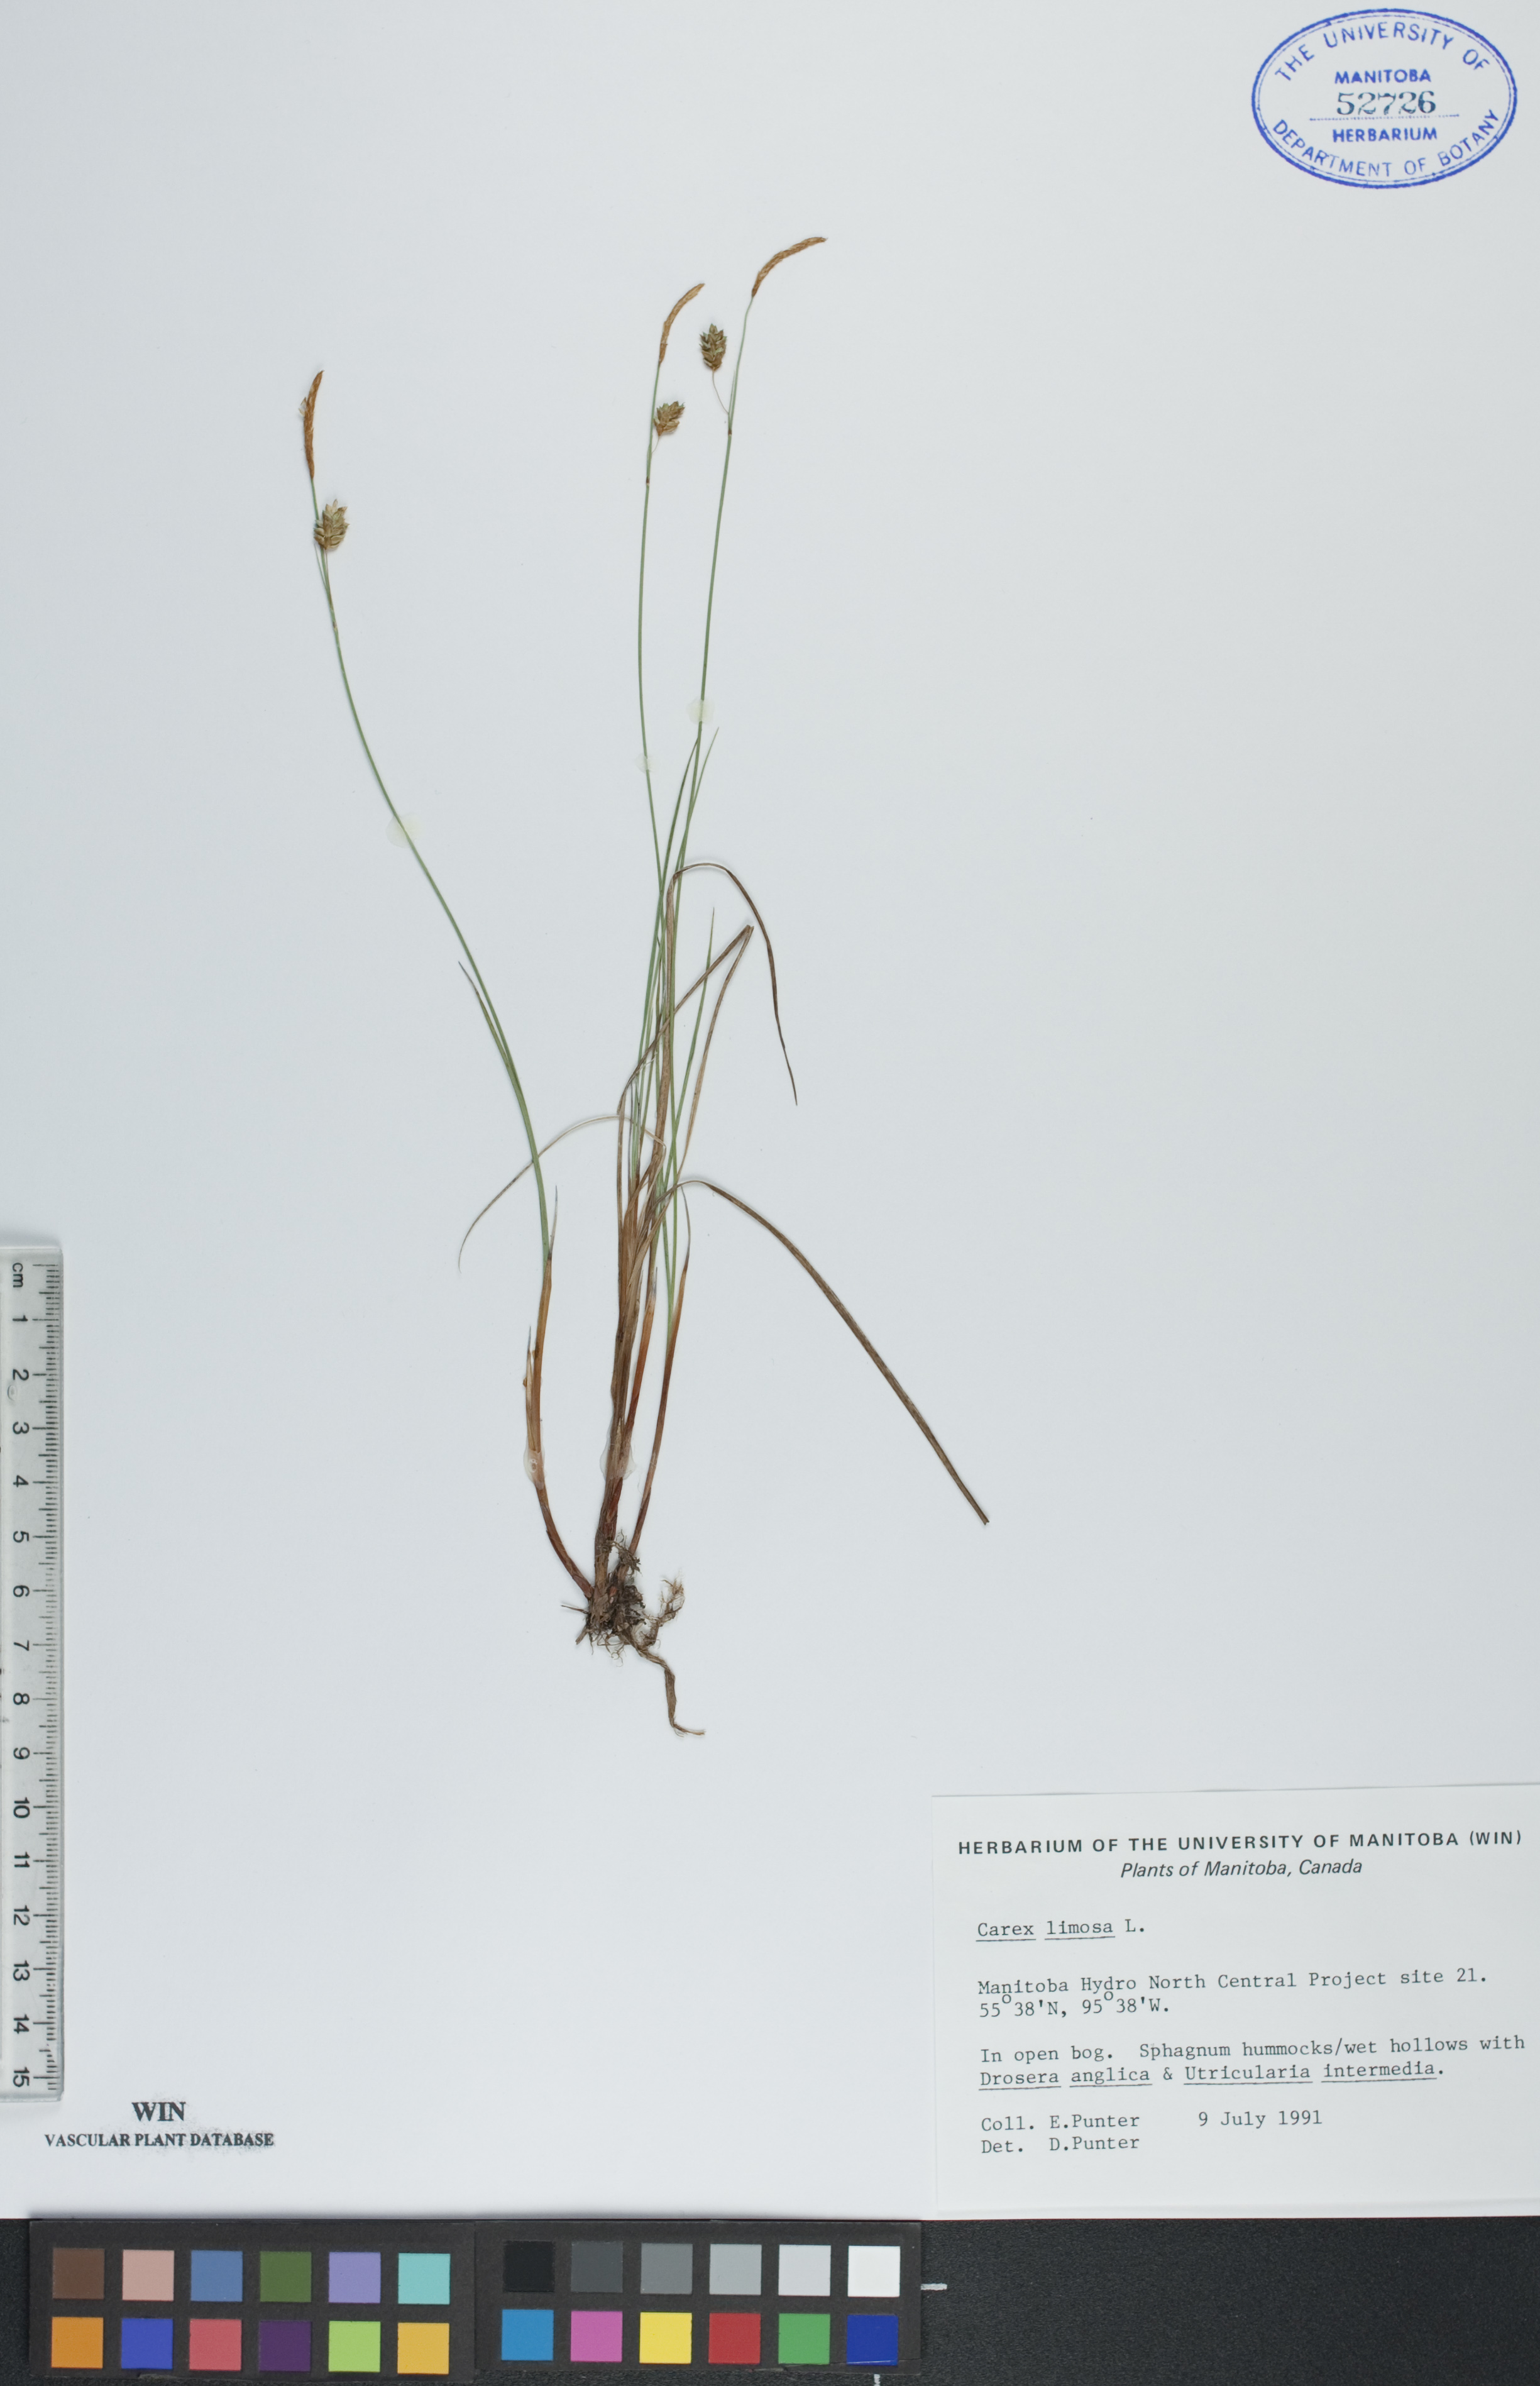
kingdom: Plantae
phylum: Tracheophyta
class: Liliopsida
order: Poales
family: Cyperaceae
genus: Carex
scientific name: Carex limosa
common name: Bog sedge
